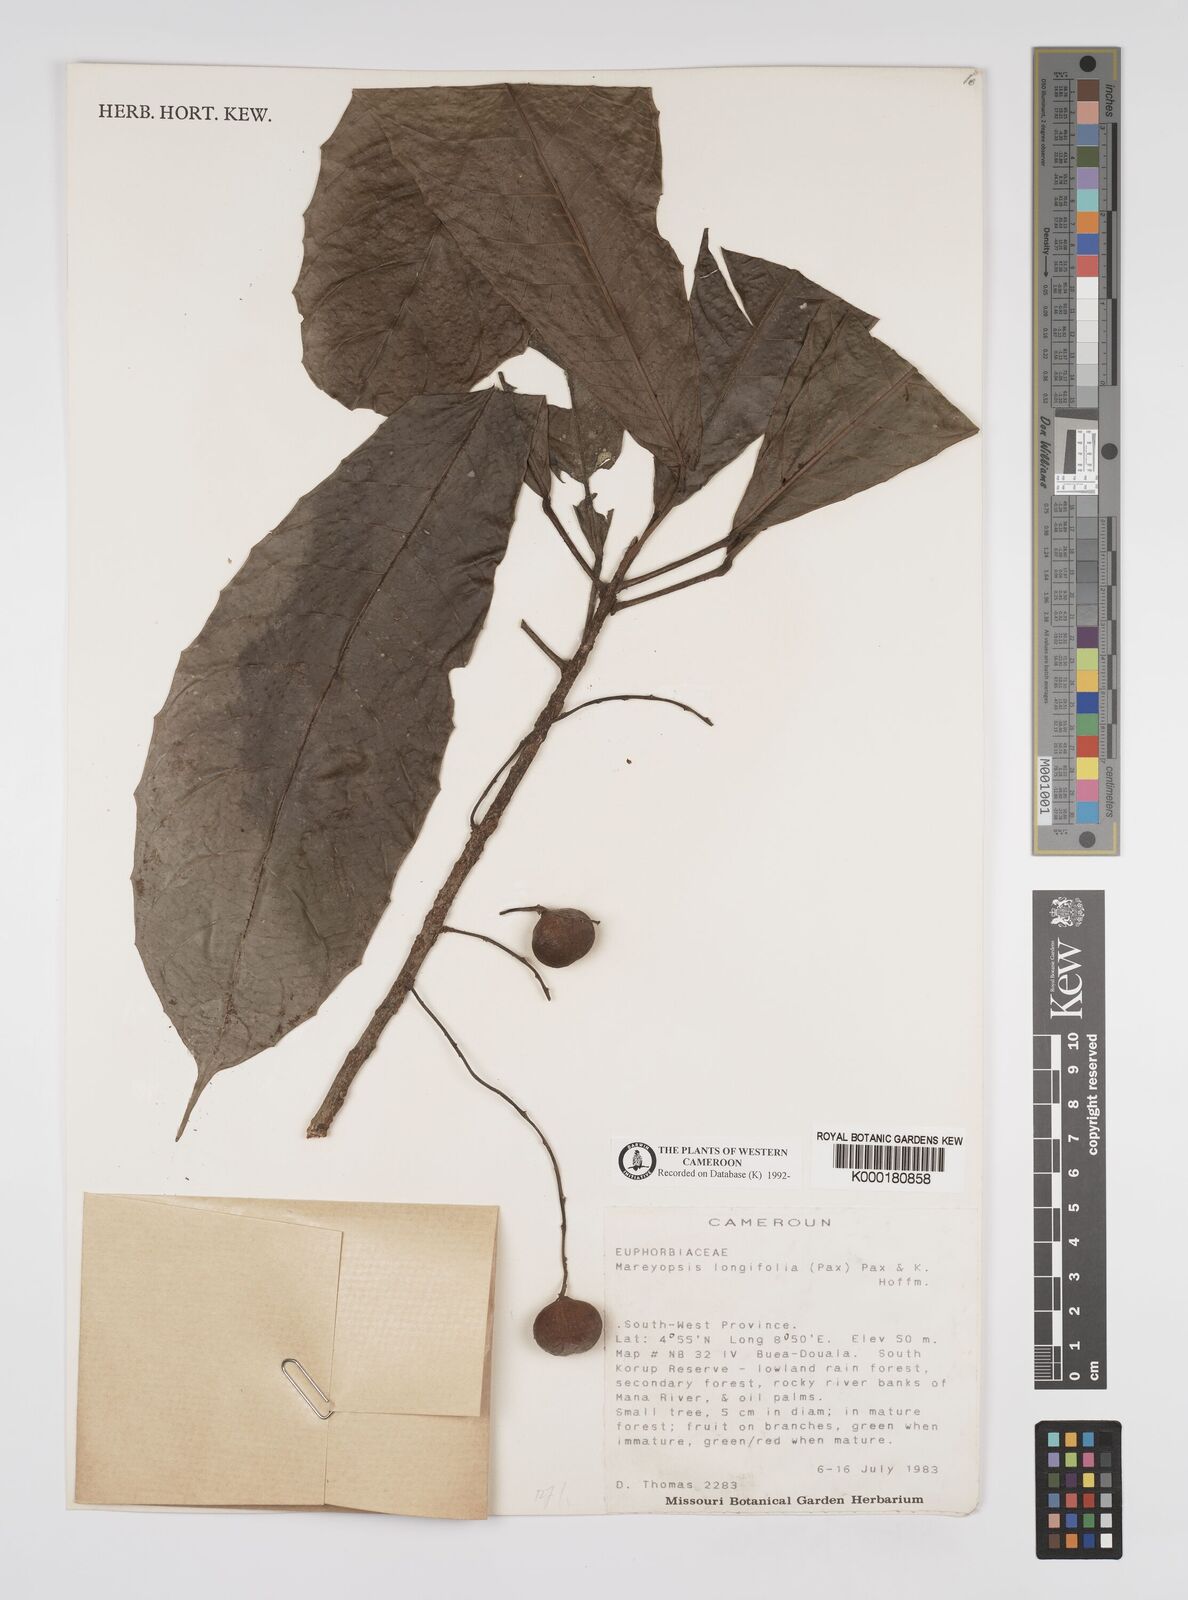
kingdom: Plantae
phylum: Tracheophyta
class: Magnoliopsida
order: Malpighiales
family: Euphorbiaceae
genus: Mareyopsis
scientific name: Mareyopsis longifolia
